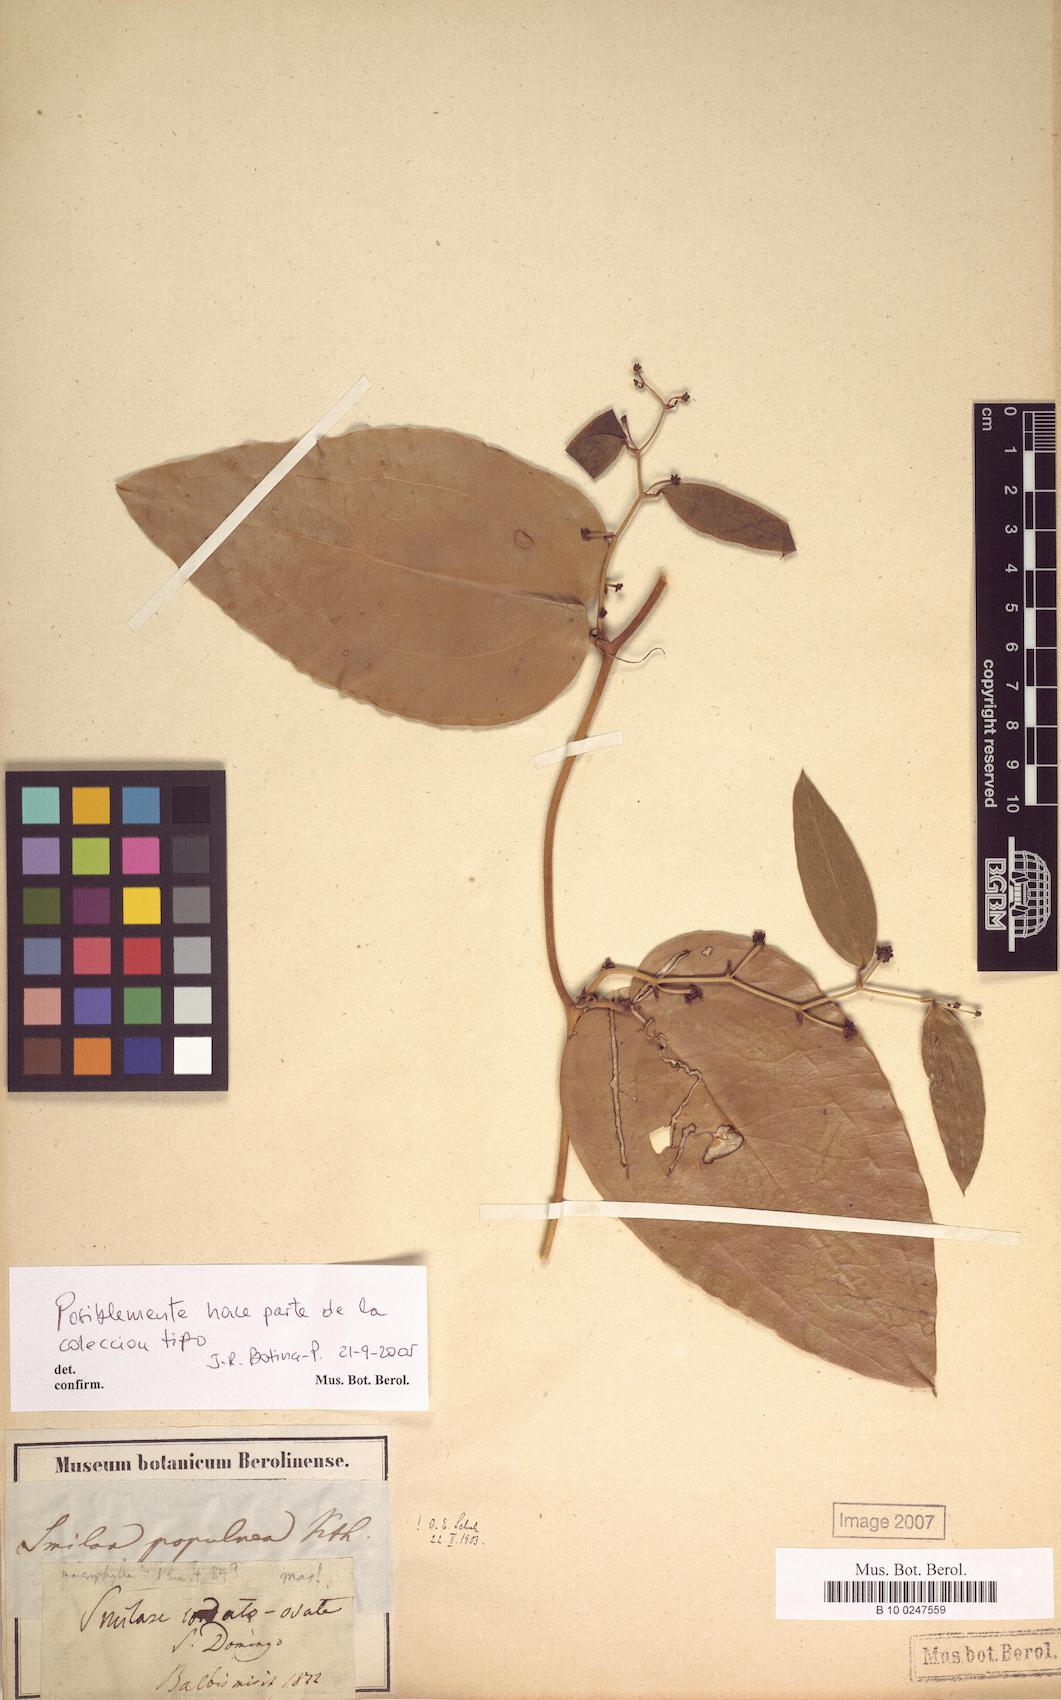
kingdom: Plantae
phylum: Tracheophyta
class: Liliopsida
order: Liliales
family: Smilacaceae
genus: Smilax
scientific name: Smilax populnea
